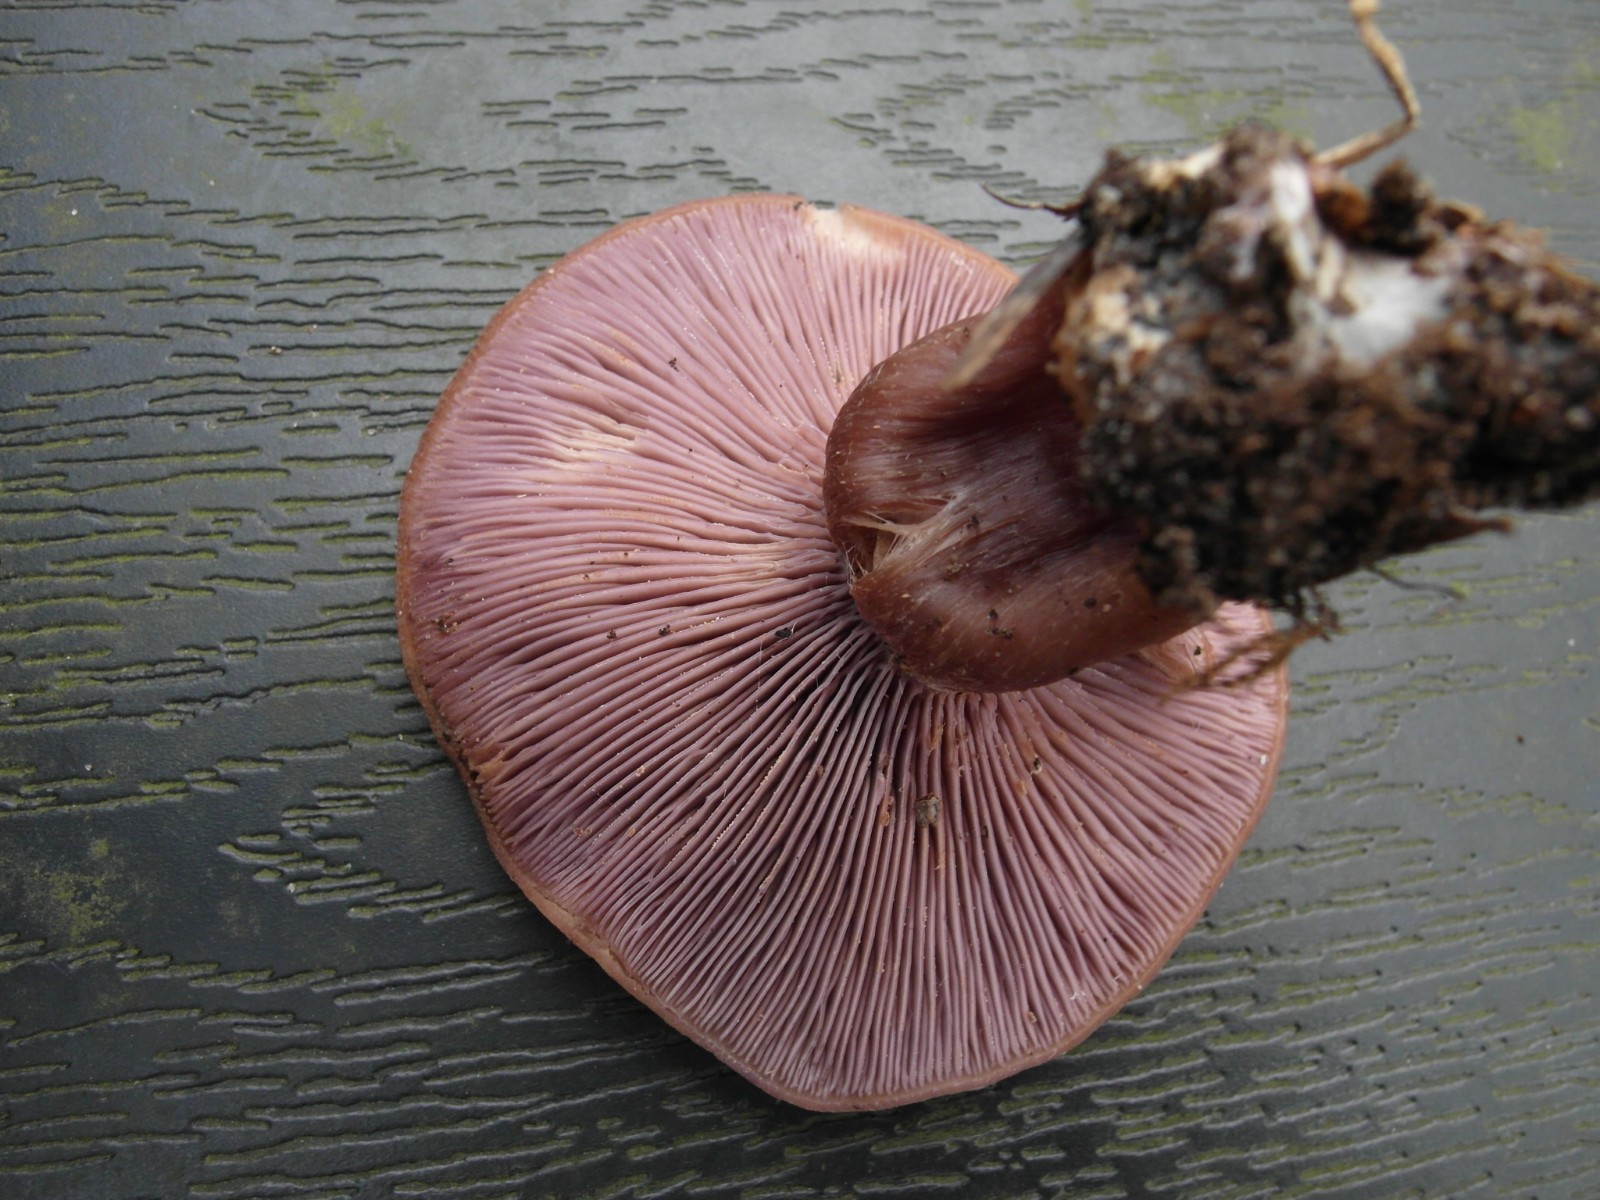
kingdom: Fungi
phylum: Basidiomycota
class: Agaricomycetes
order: Agaricales
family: Tricholomataceae
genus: Lepista
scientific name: Lepista nuda
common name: violet hekseringshat
